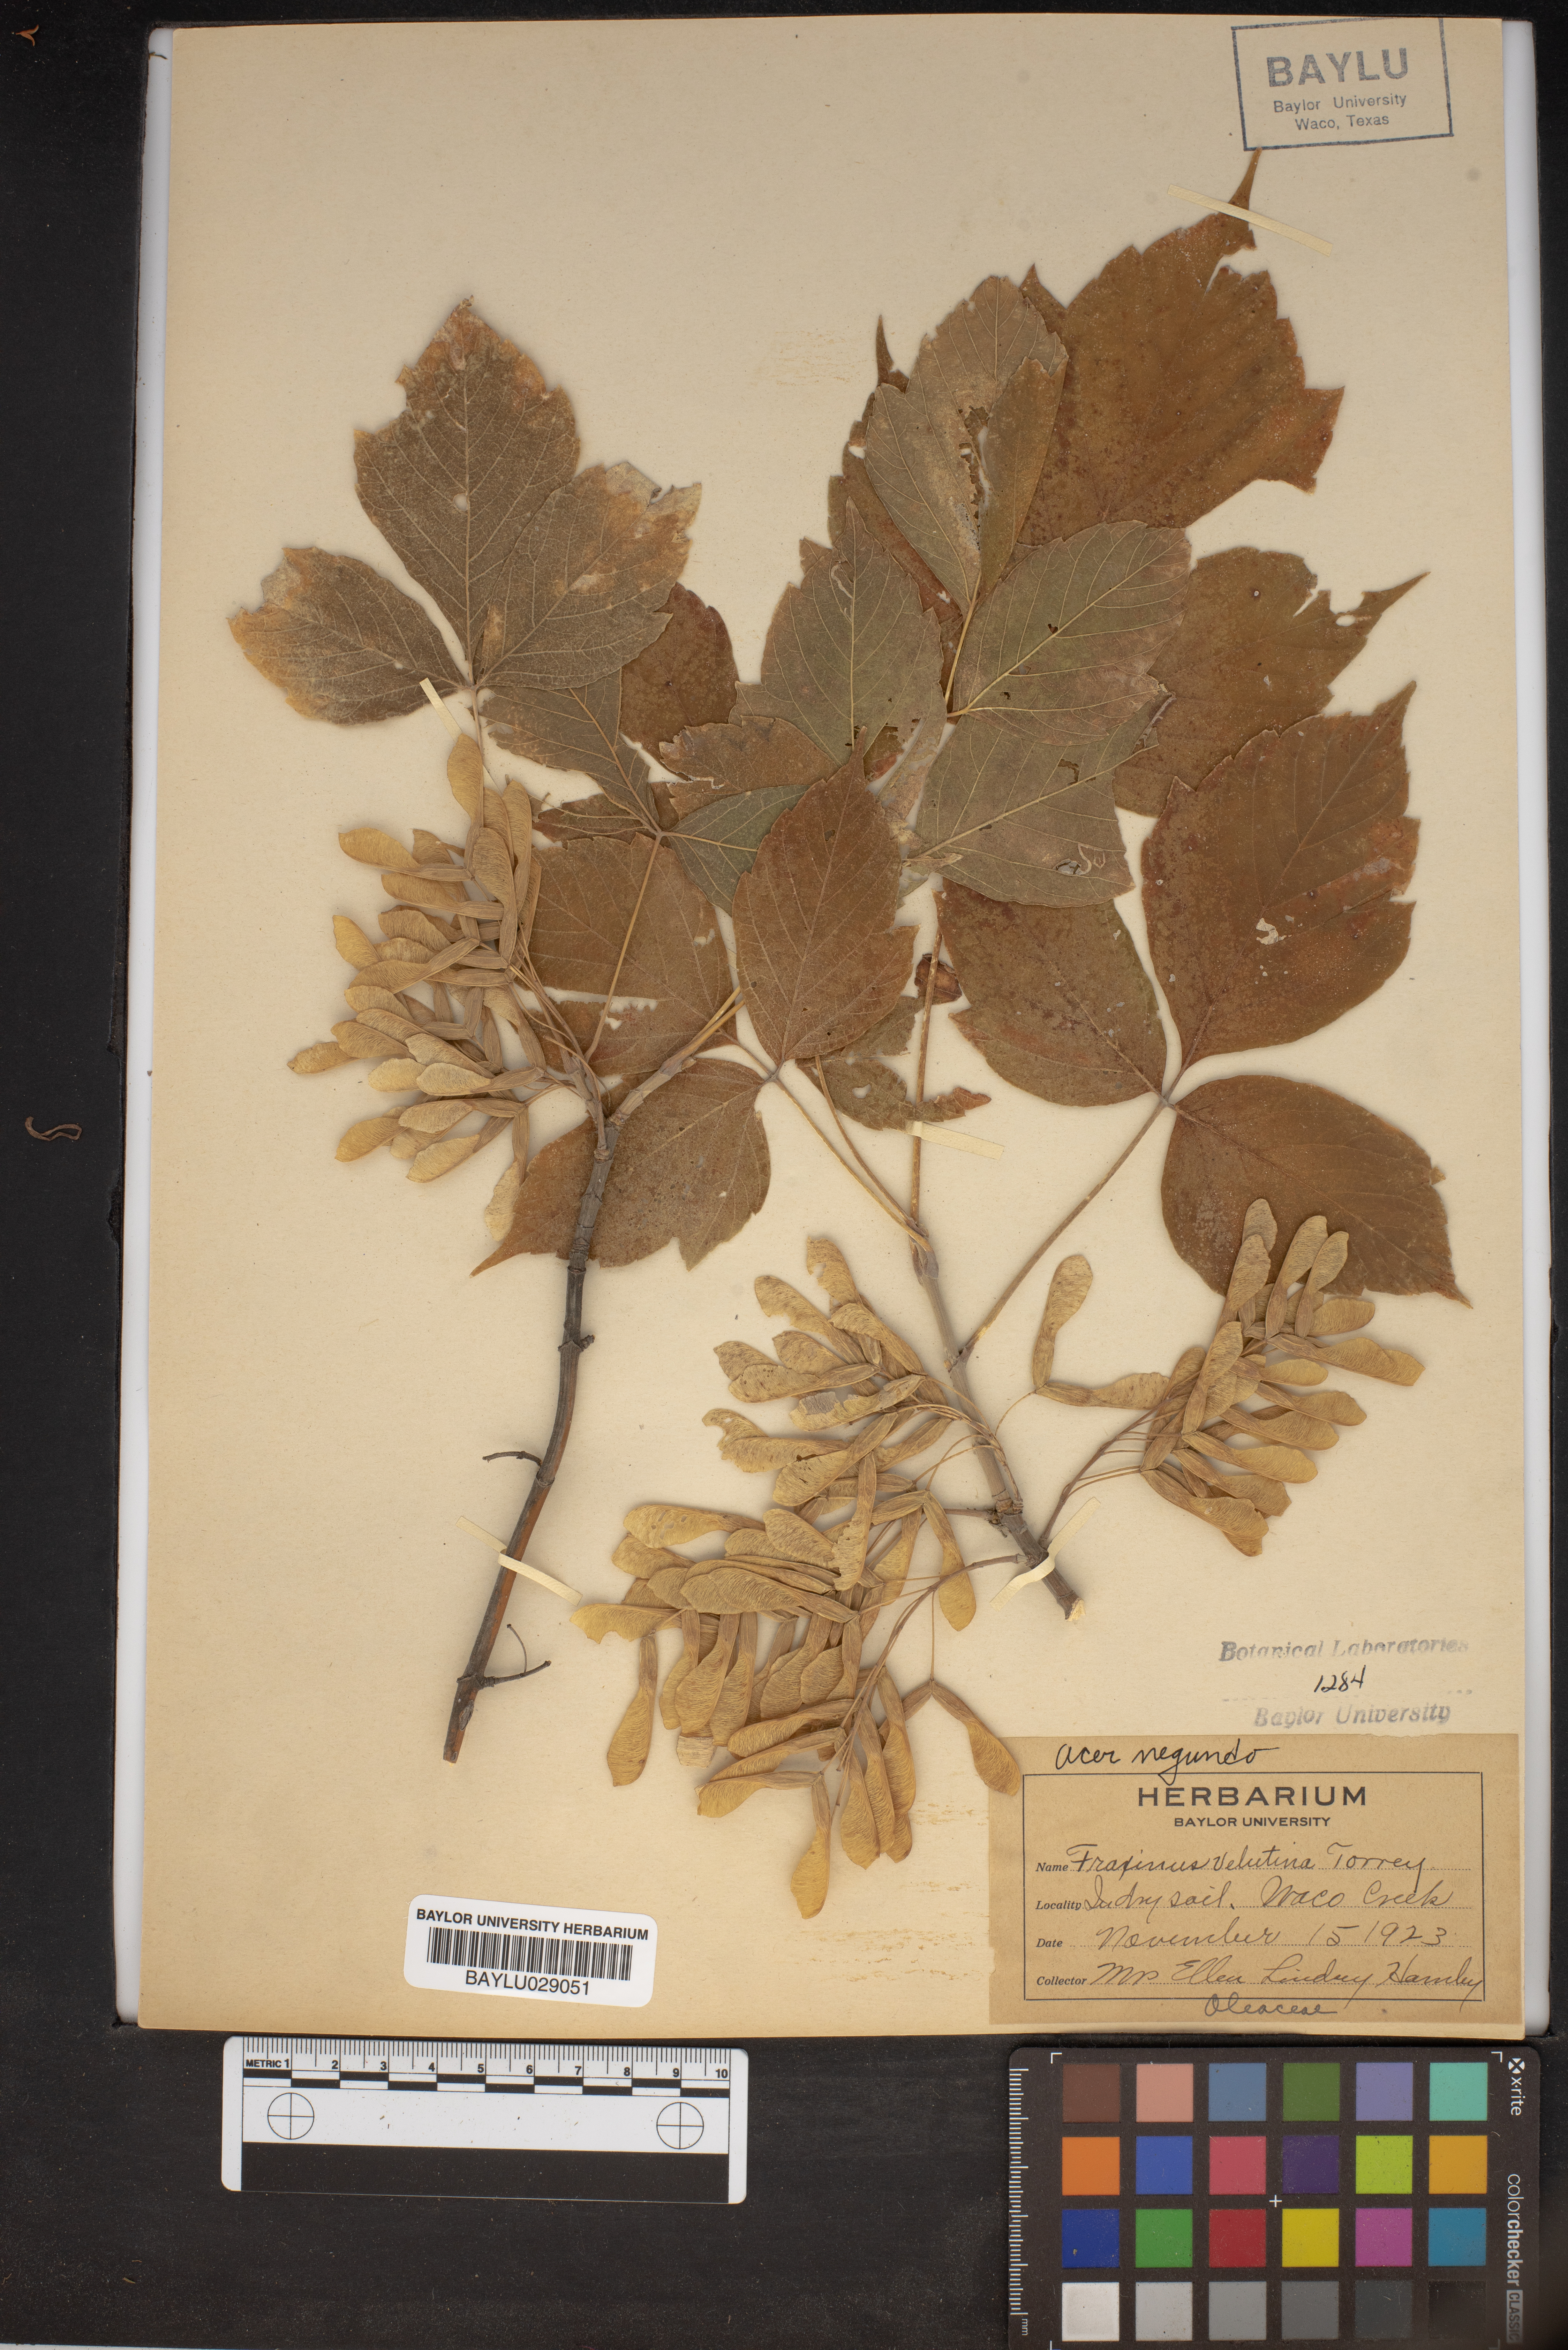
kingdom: Plantae
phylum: Tracheophyta
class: Magnoliopsida
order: Lamiales
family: Oleaceae
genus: Fraxinus
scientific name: Fraxinus velutina
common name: Arizon ash
